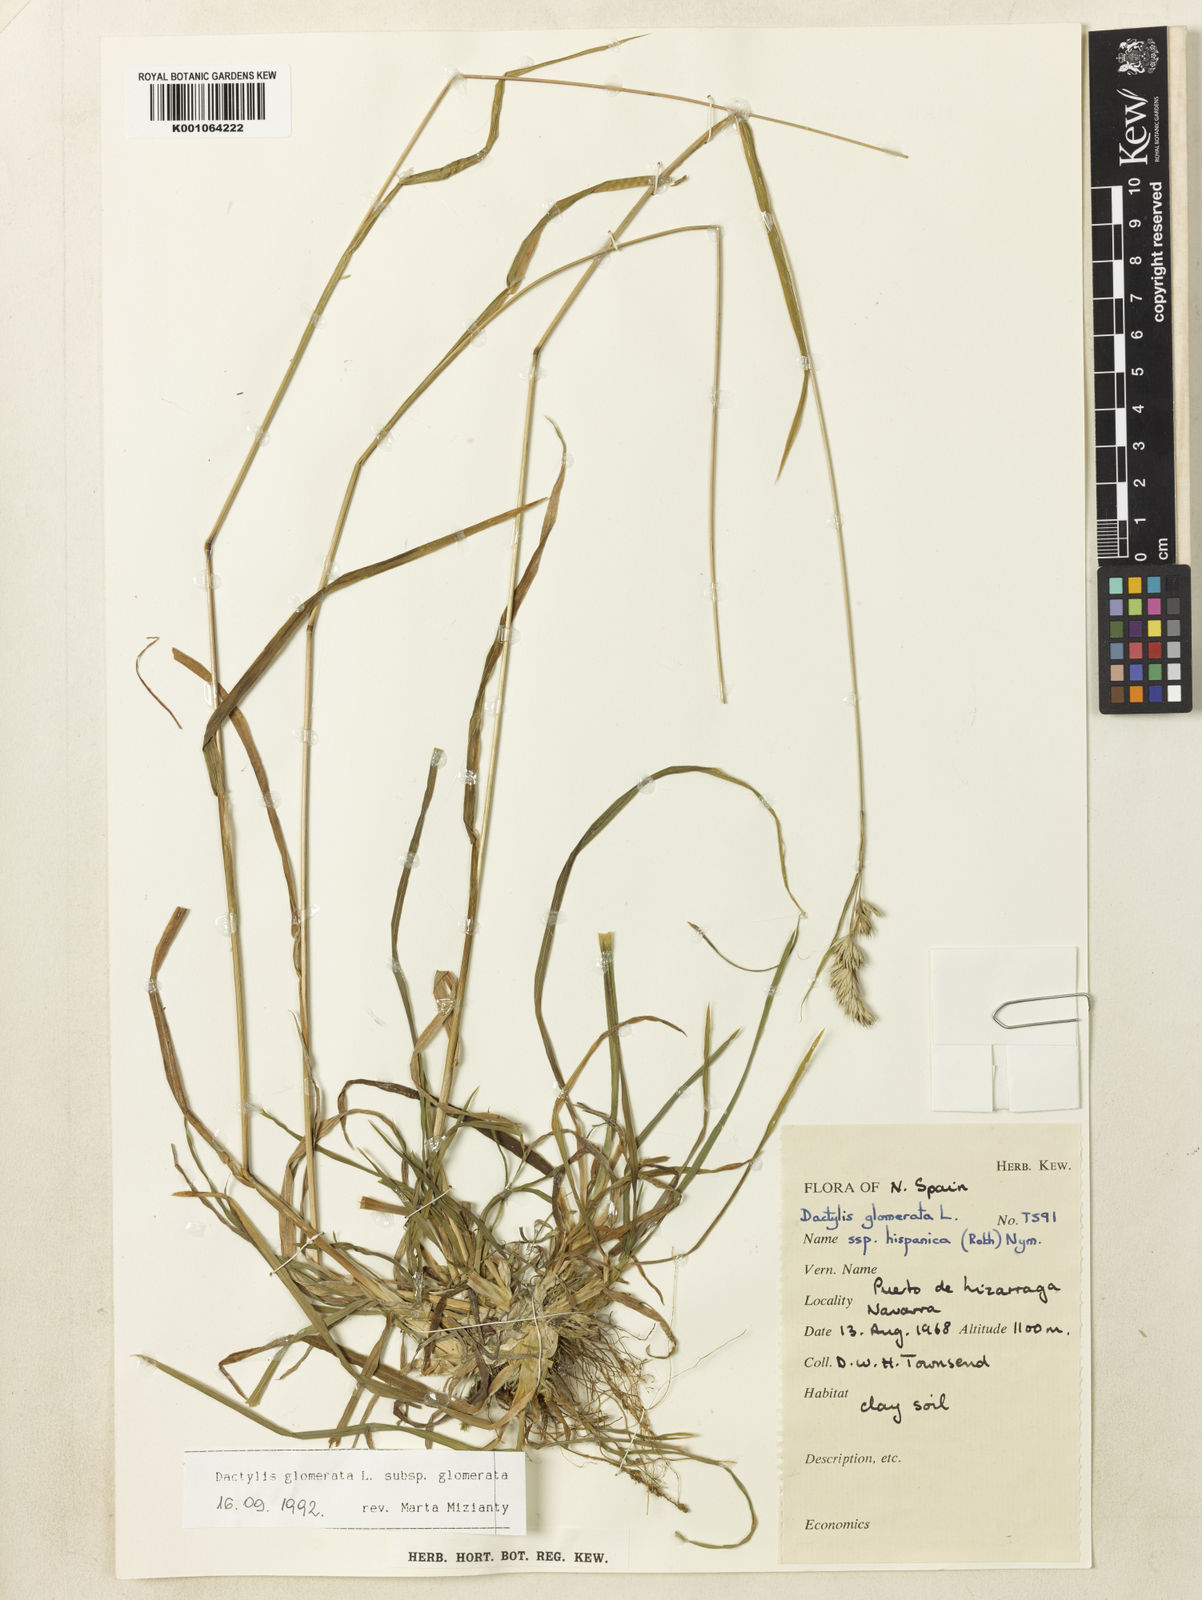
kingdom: Plantae
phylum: Tracheophyta
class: Liliopsida
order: Poales
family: Poaceae
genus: Dactylis
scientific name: Dactylis glomerata
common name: Orchardgrass
